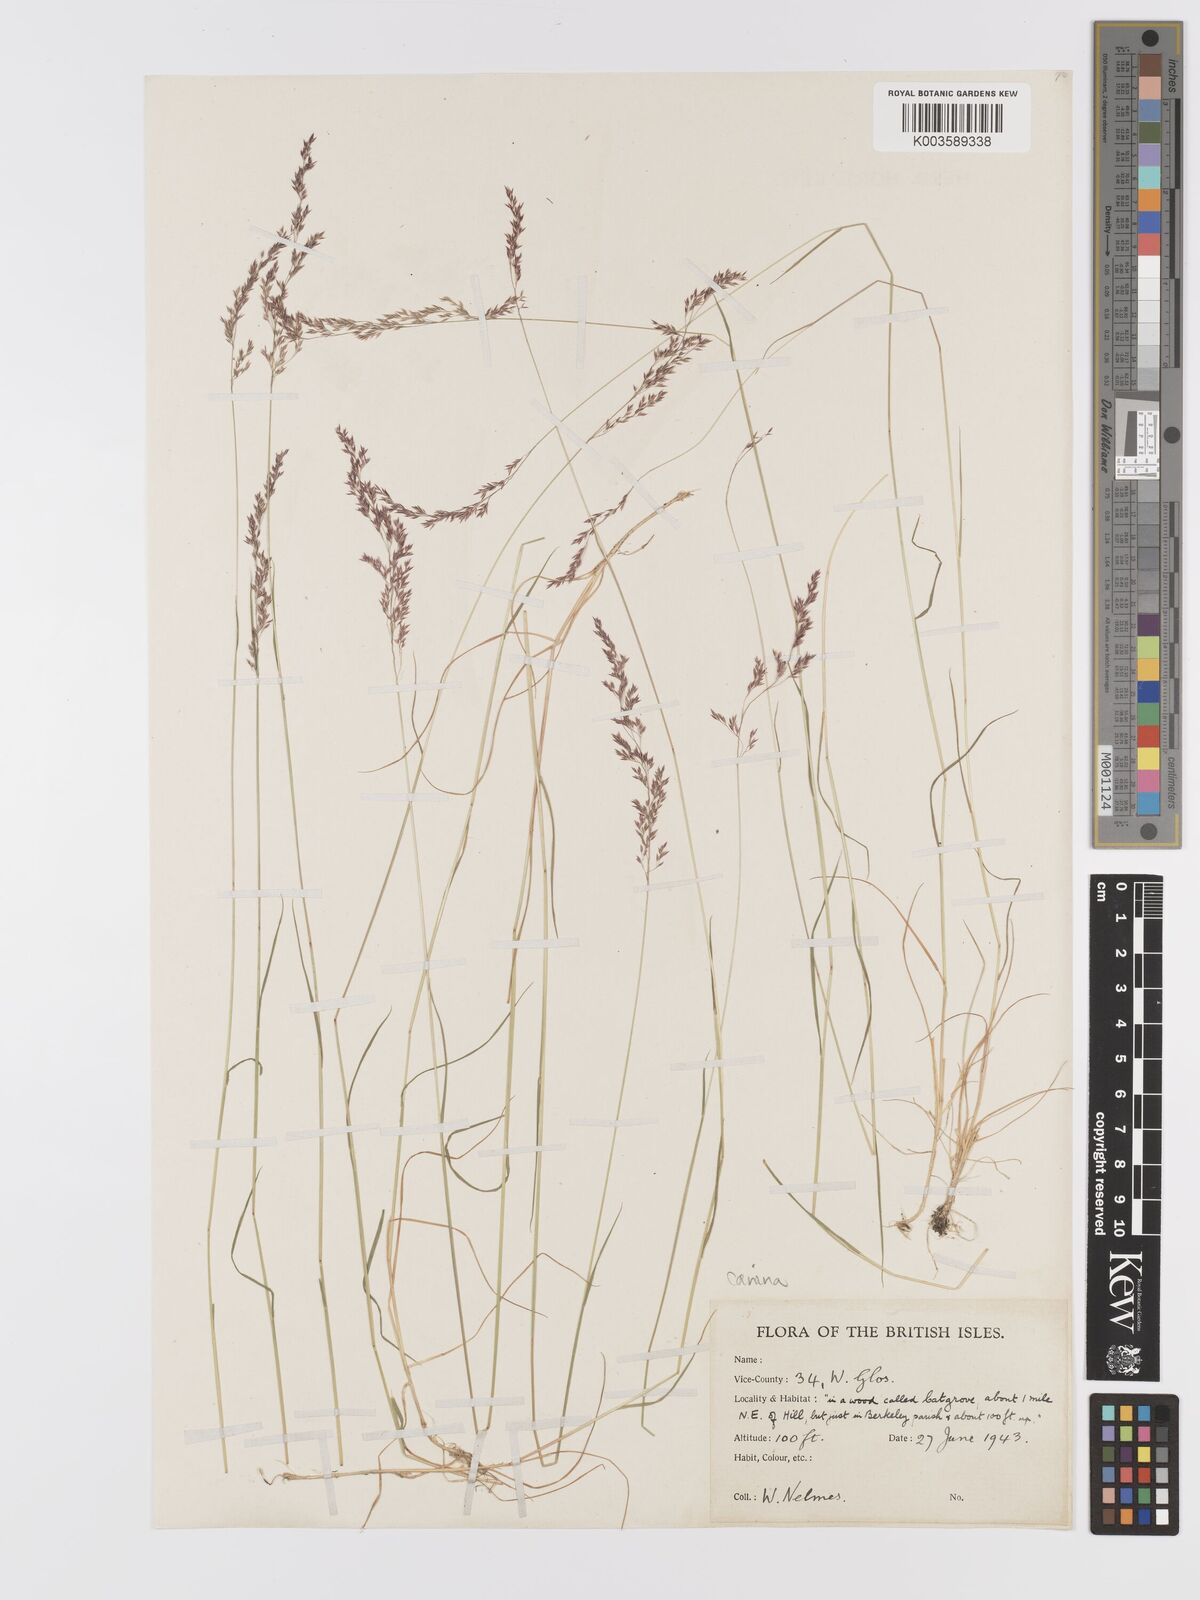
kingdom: Plantae
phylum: Tracheophyta
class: Liliopsida
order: Poales
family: Poaceae
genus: Agrostis
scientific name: Agrostis canina
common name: Velvet bent
